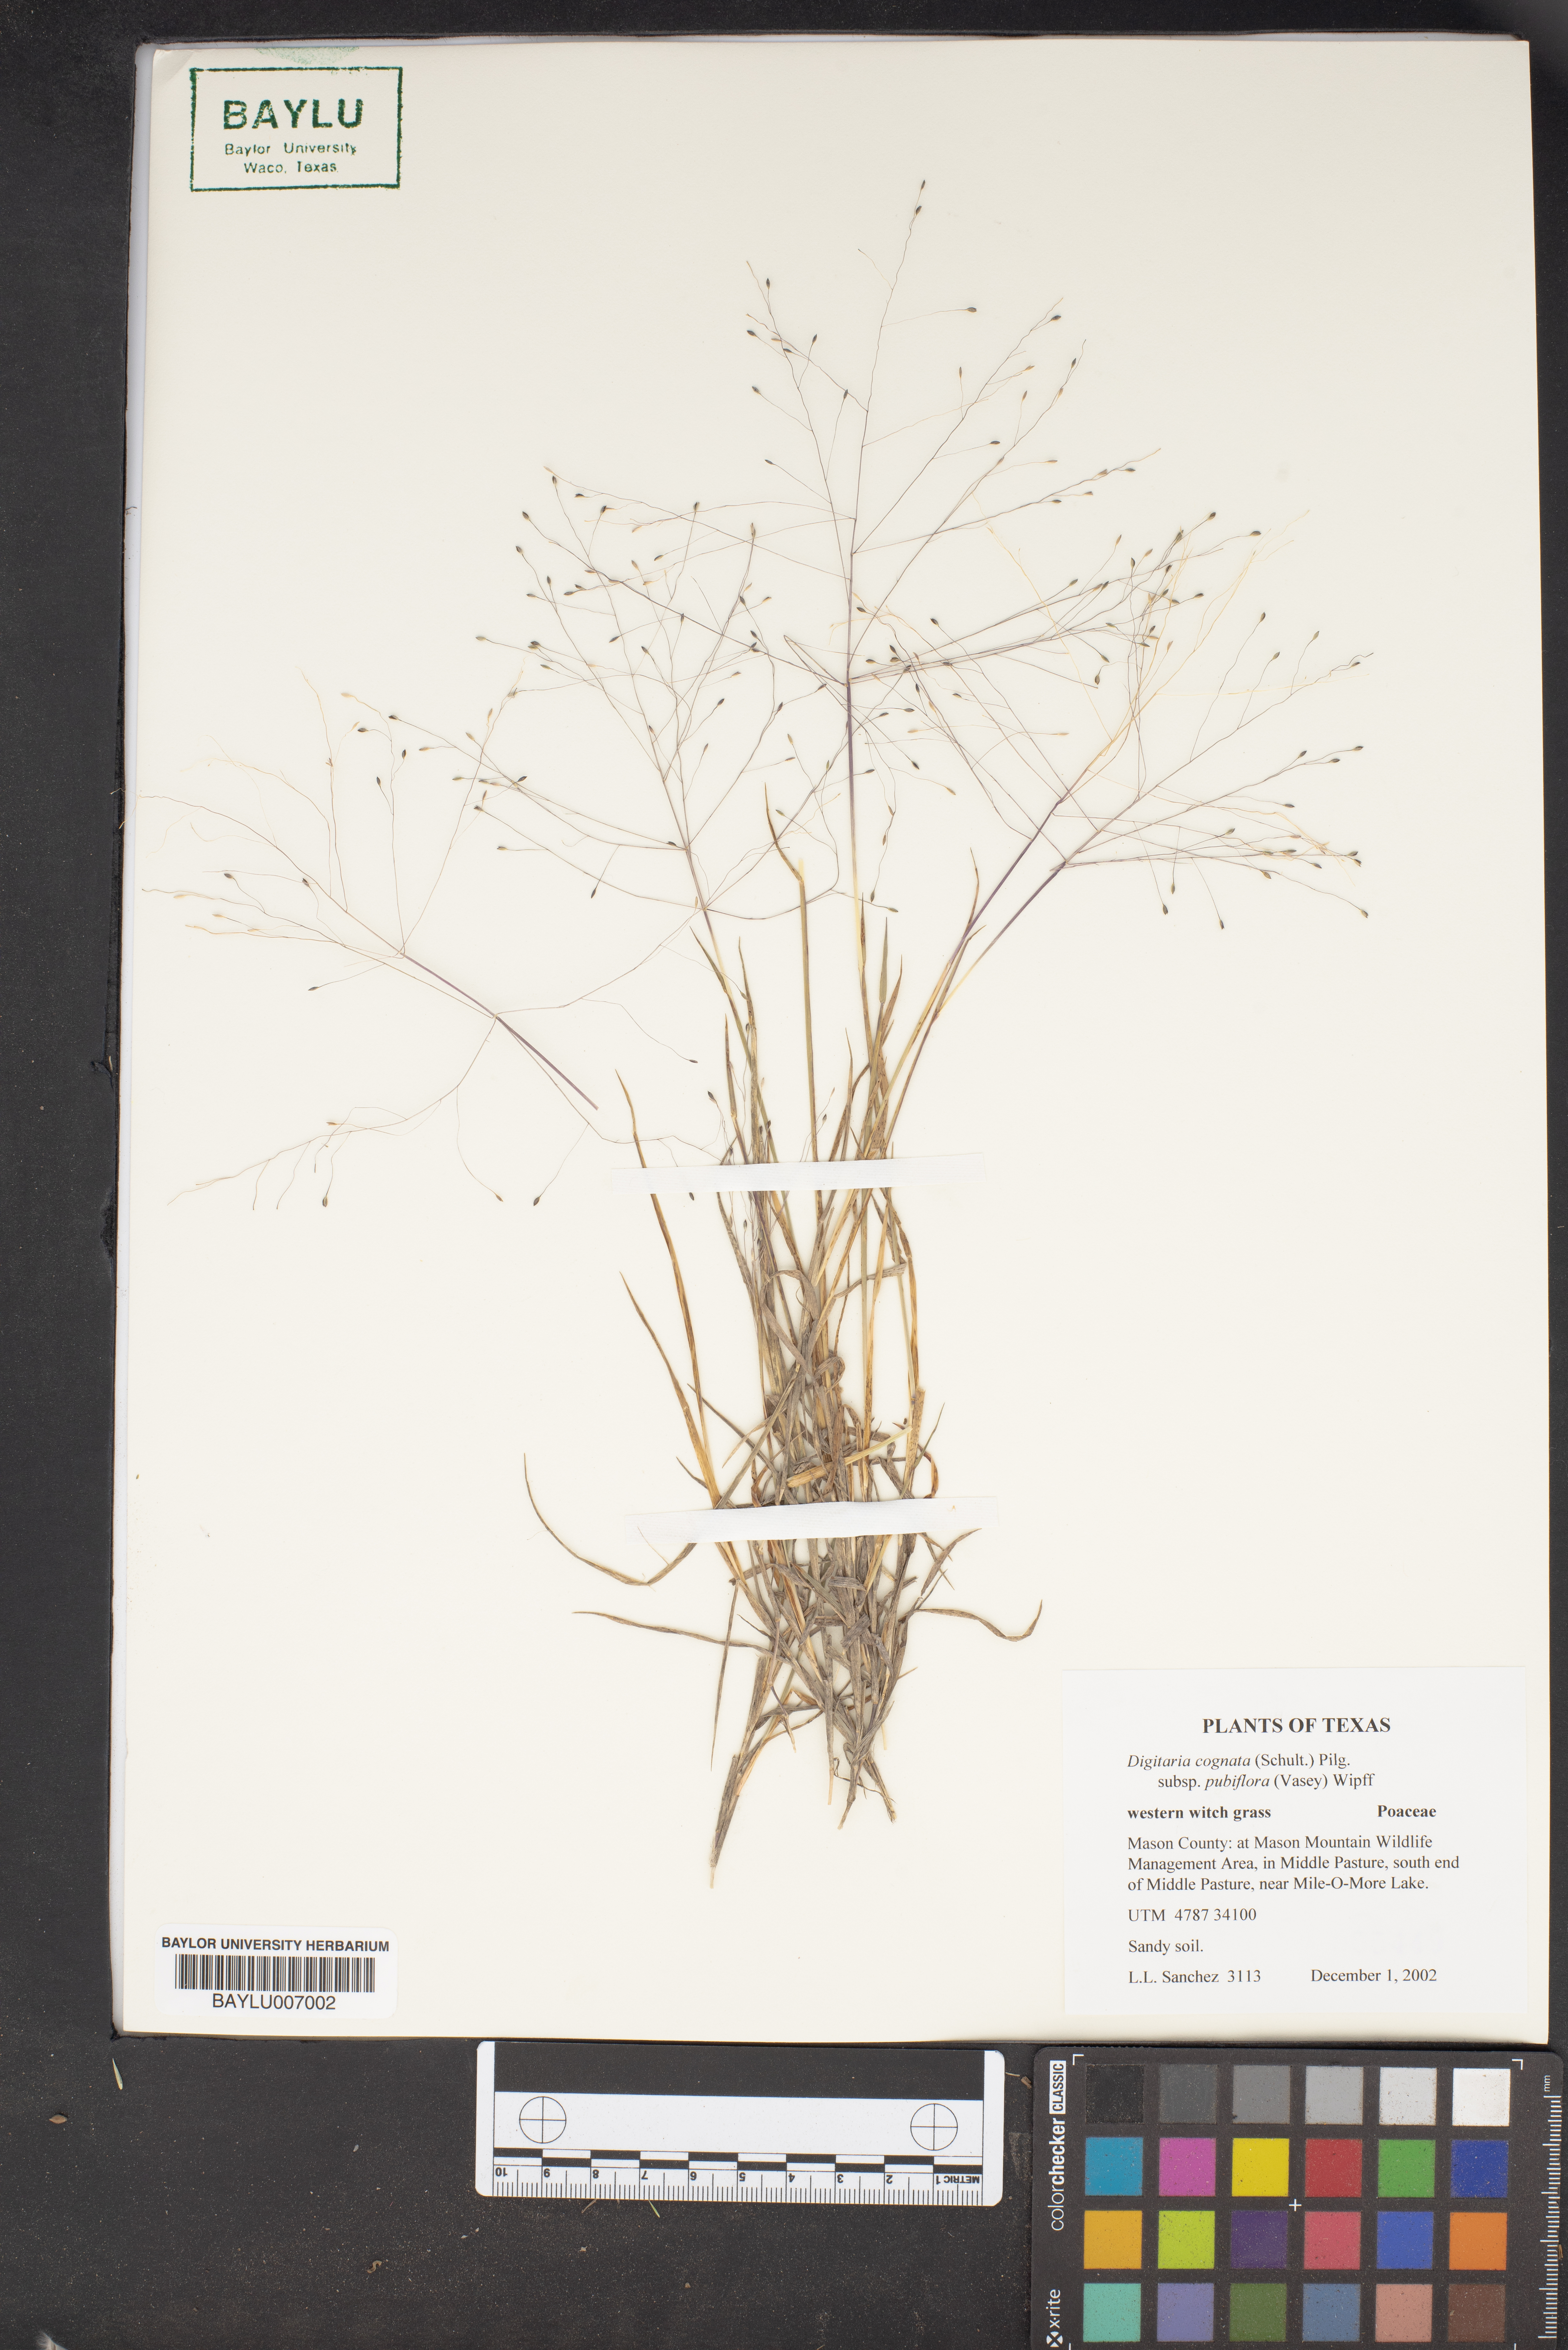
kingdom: Plantae
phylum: Tracheophyta
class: Liliopsida
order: Poales
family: Poaceae
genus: Digitaria
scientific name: Digitaria cognata
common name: Fall witchgrass
